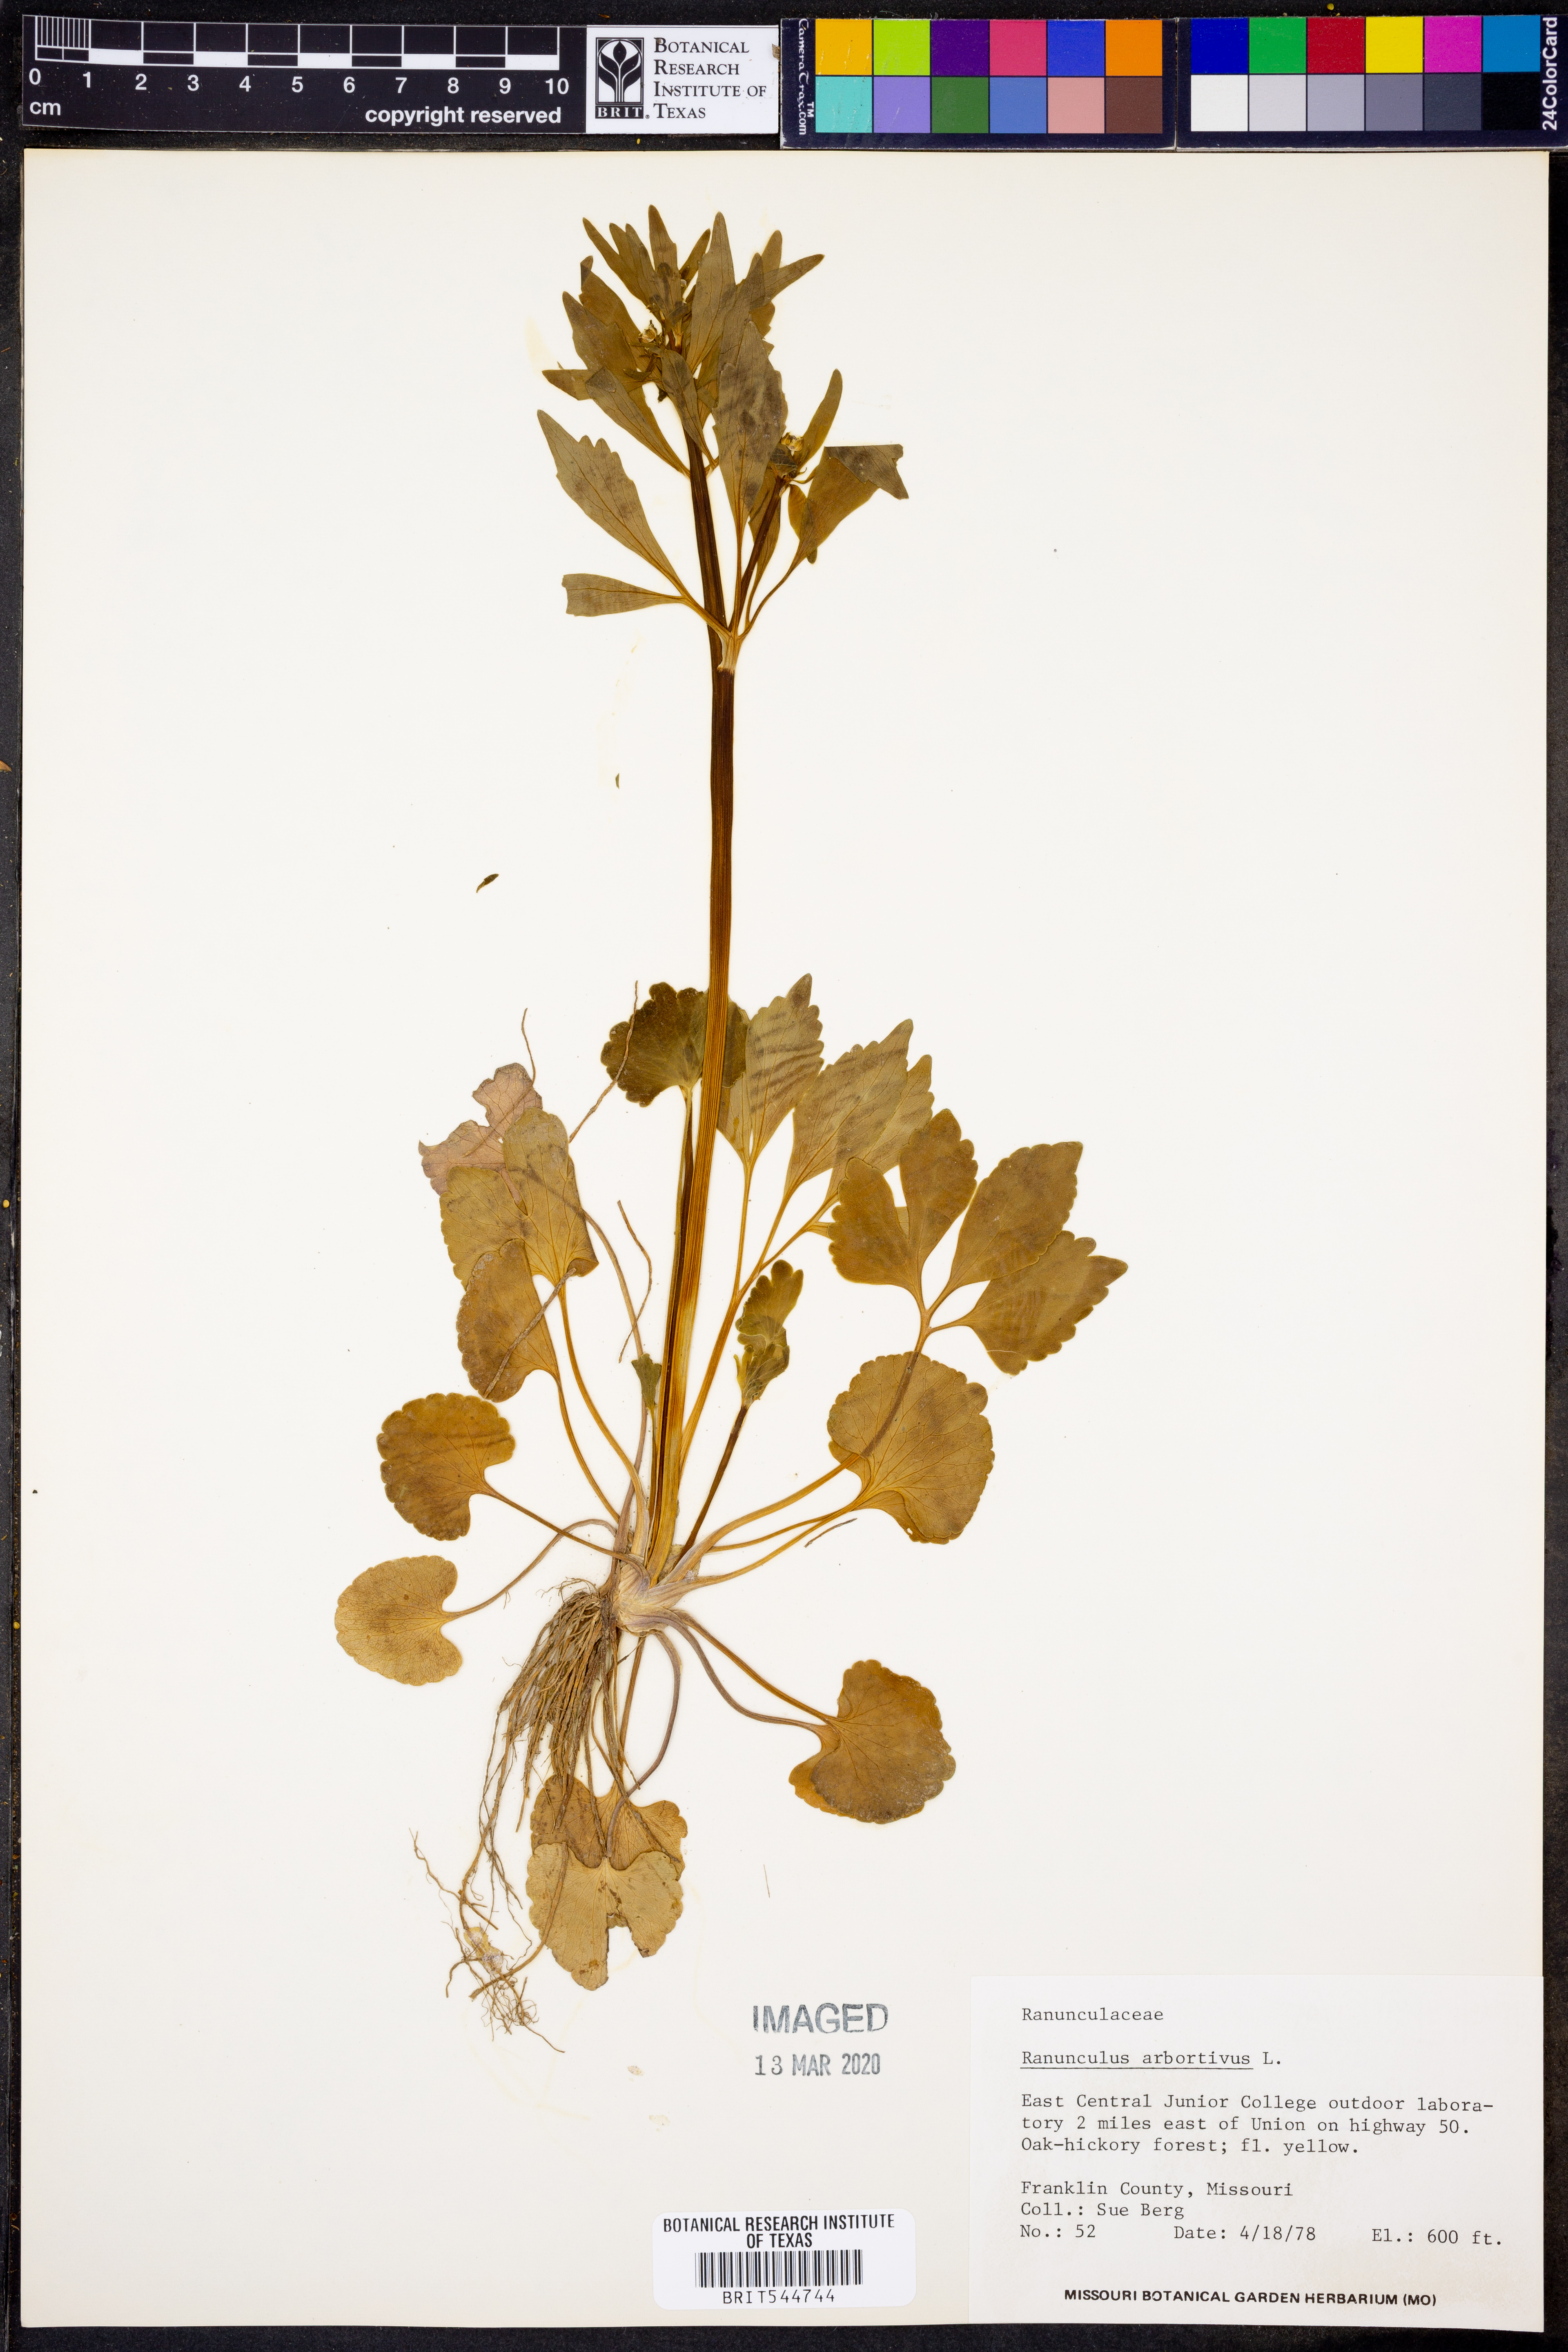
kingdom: Plantae
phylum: Tracheophyta
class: Magnoliopsida
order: Ranunculales
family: Ranunculaceae
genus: Ranunculus
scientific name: Ranunculus abortivus
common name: Early wood buttercup
